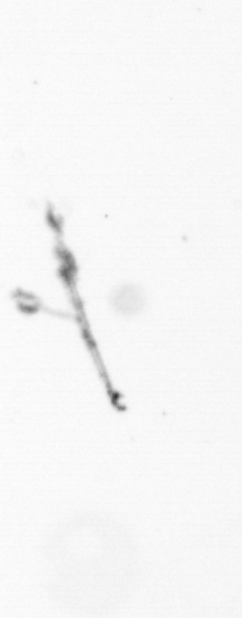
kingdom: Chromista
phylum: Ochrophyta
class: Bacillariophyceae
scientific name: Bacillariophyceae
